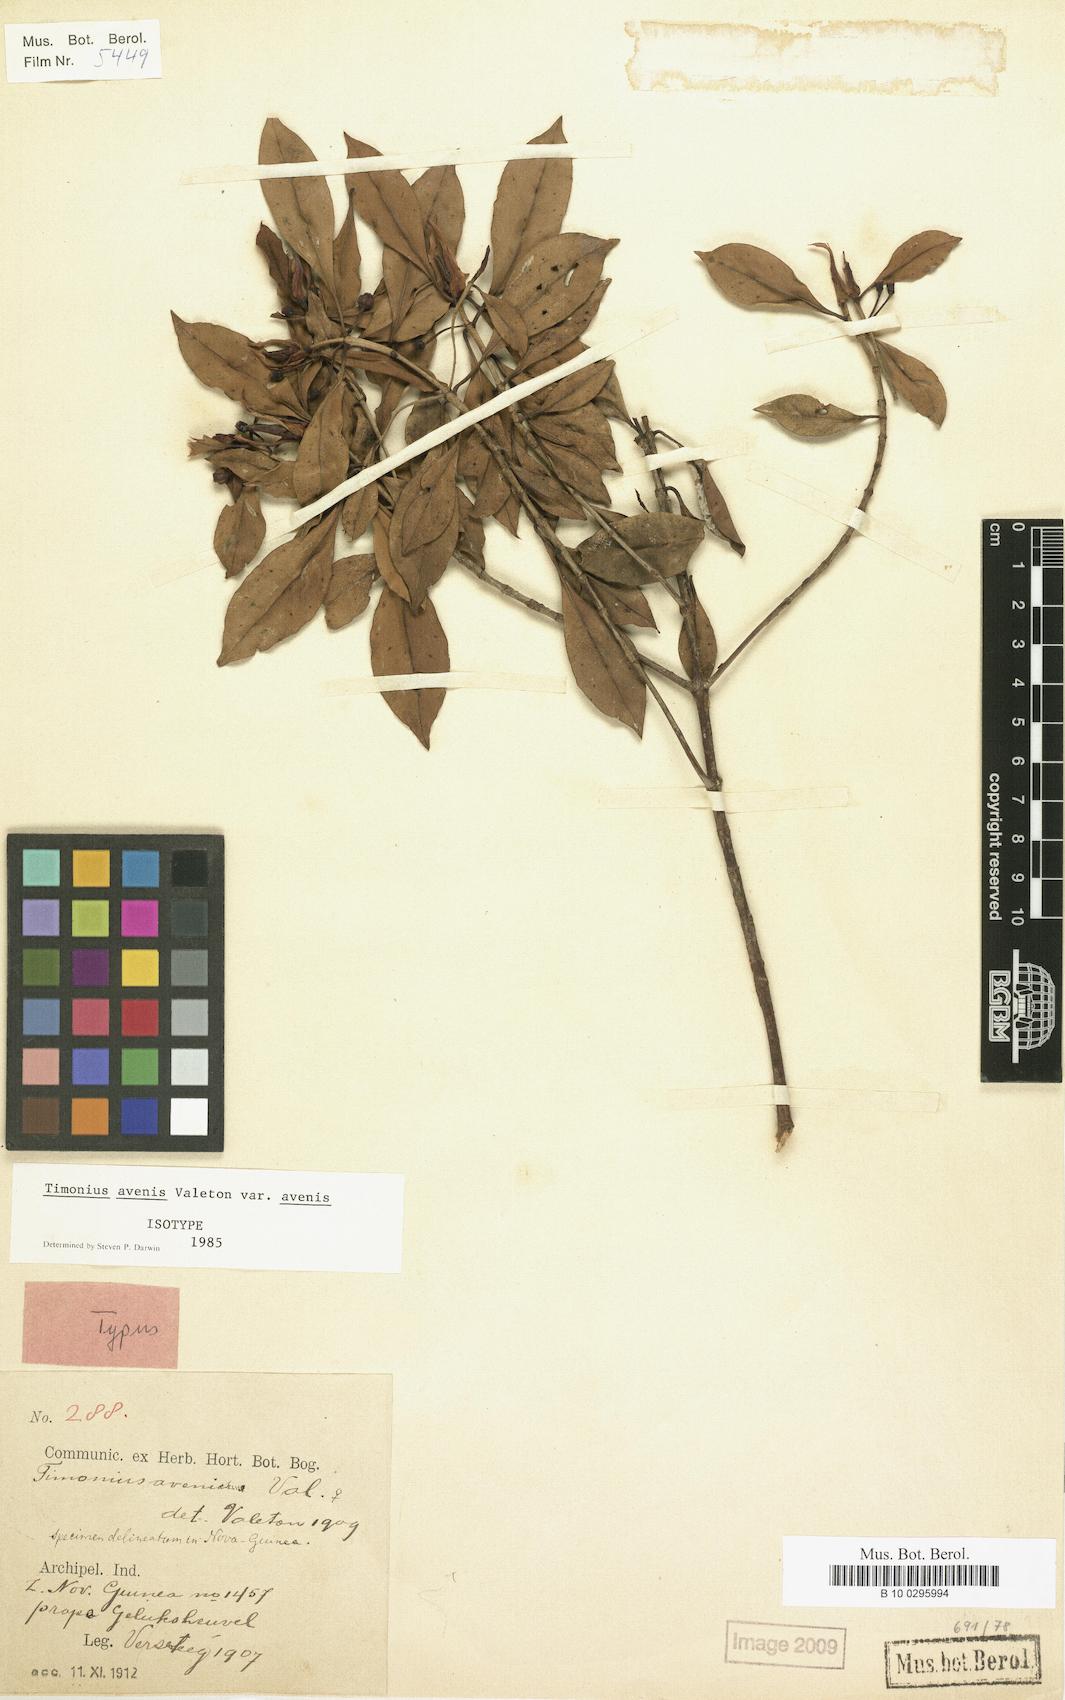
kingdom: Plantae
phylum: Tracheophyta
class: Magnoliopsida
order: Gentianales
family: Rubiaceae
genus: Timonius
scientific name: Timonius avenis
